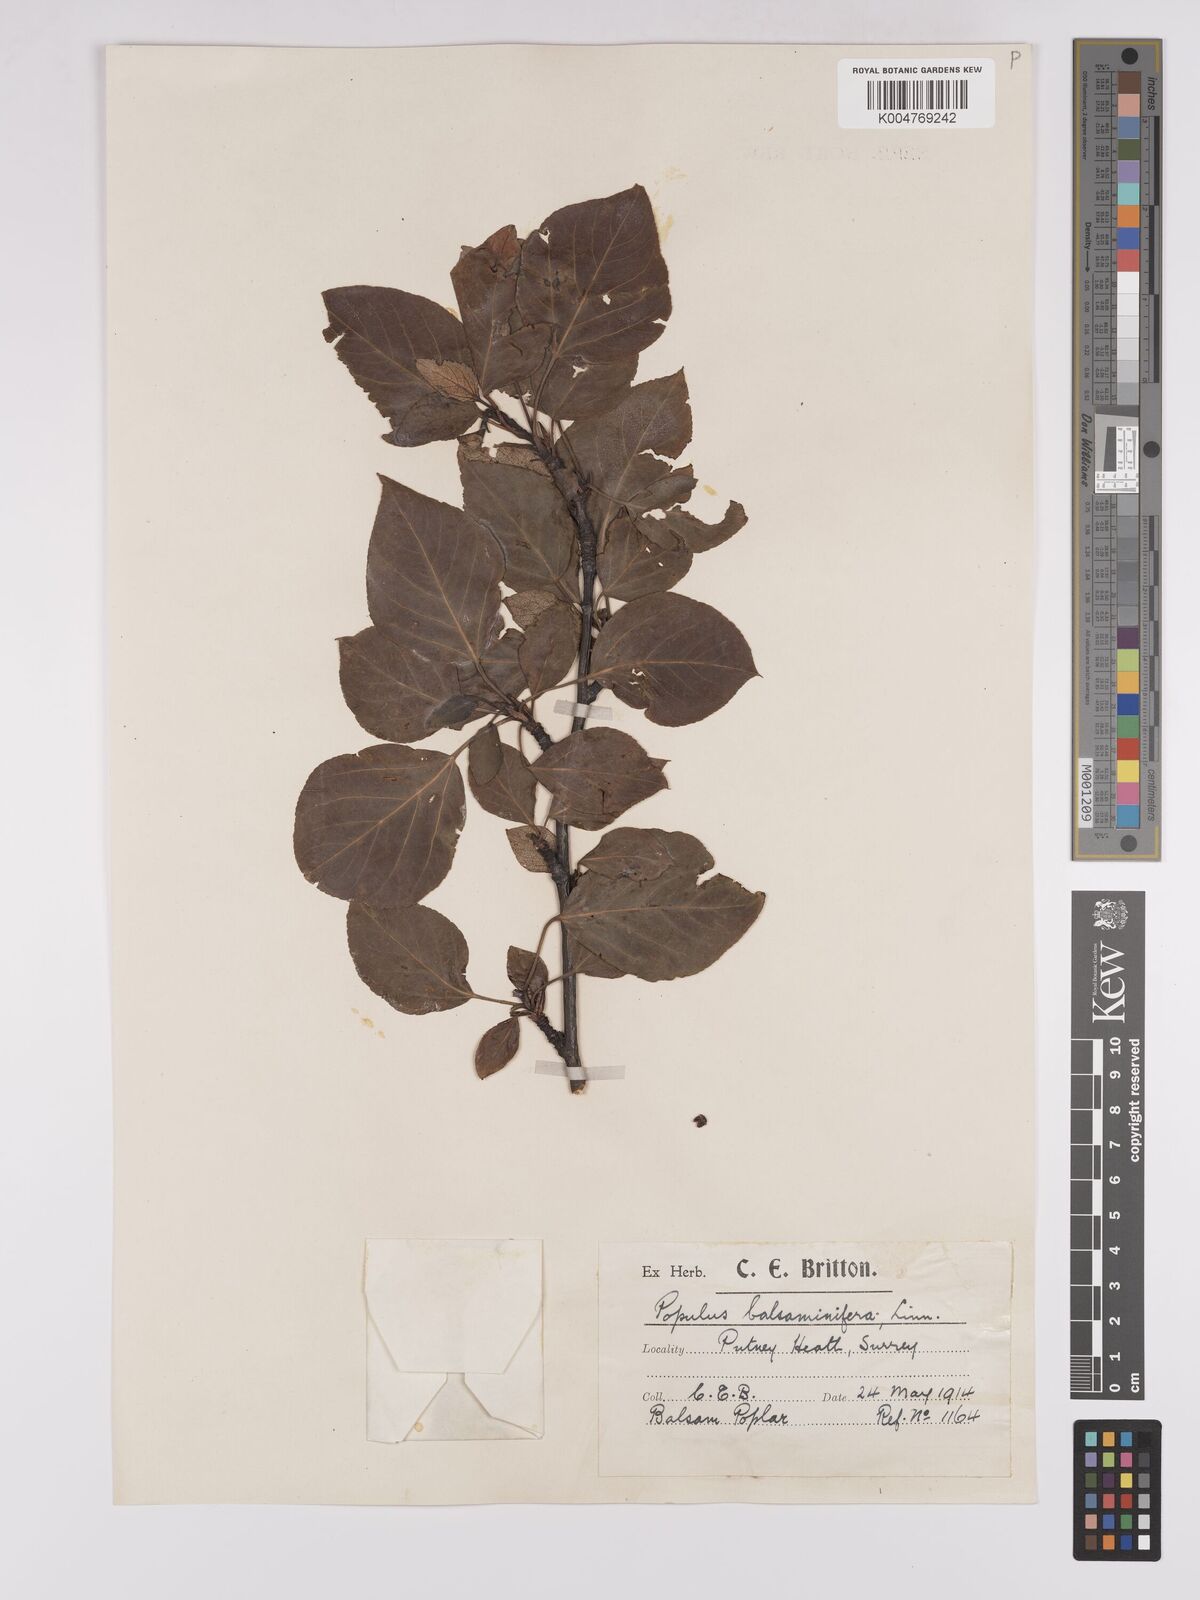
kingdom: Plantae
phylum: Tracheophyta
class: Magnoliopsida
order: Malpighiales
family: Salicaceae
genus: Populus
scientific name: Populus balsamifera
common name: Balsam poplar
